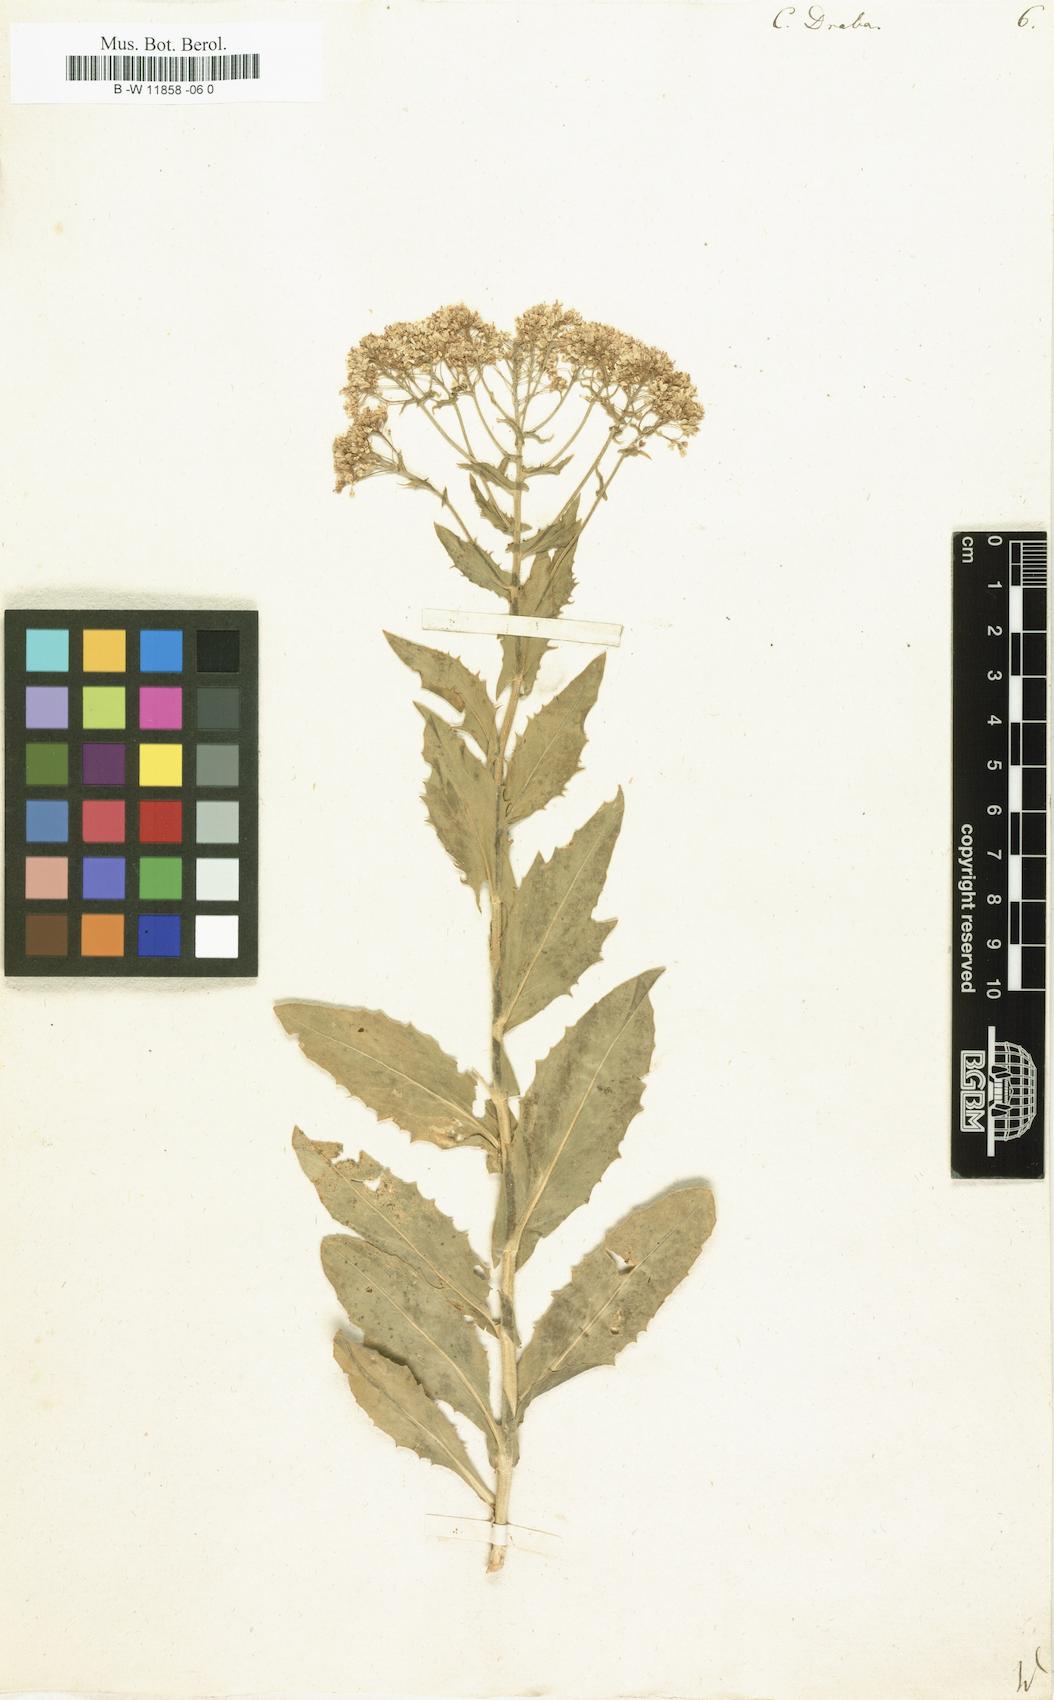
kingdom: Plantae
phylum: Tracheophyta
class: Magnoliopsida
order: Brassicales
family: Brassicaceae
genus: Lepidium
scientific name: Lepidium draba
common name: Hoary cress
